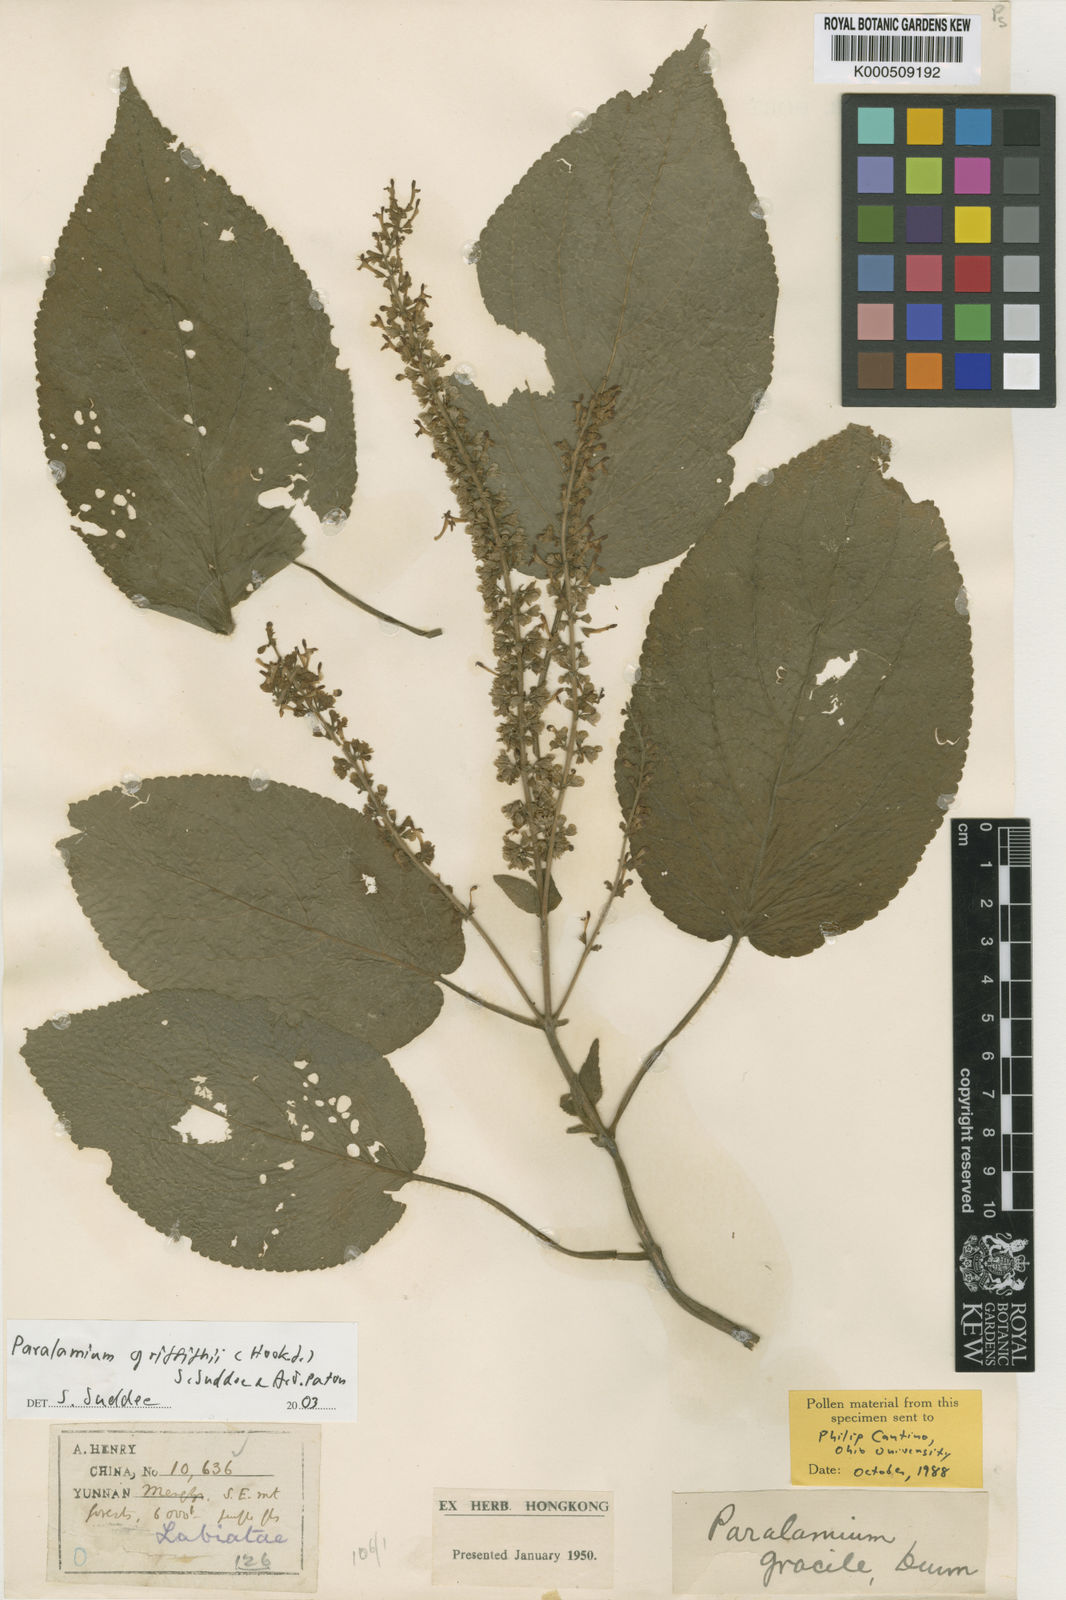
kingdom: Plantae
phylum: Tracheophyta
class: Magnoliopsida
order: Lamiales
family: Lamiaceae
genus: Paralamium
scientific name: Paralamium griffithii
